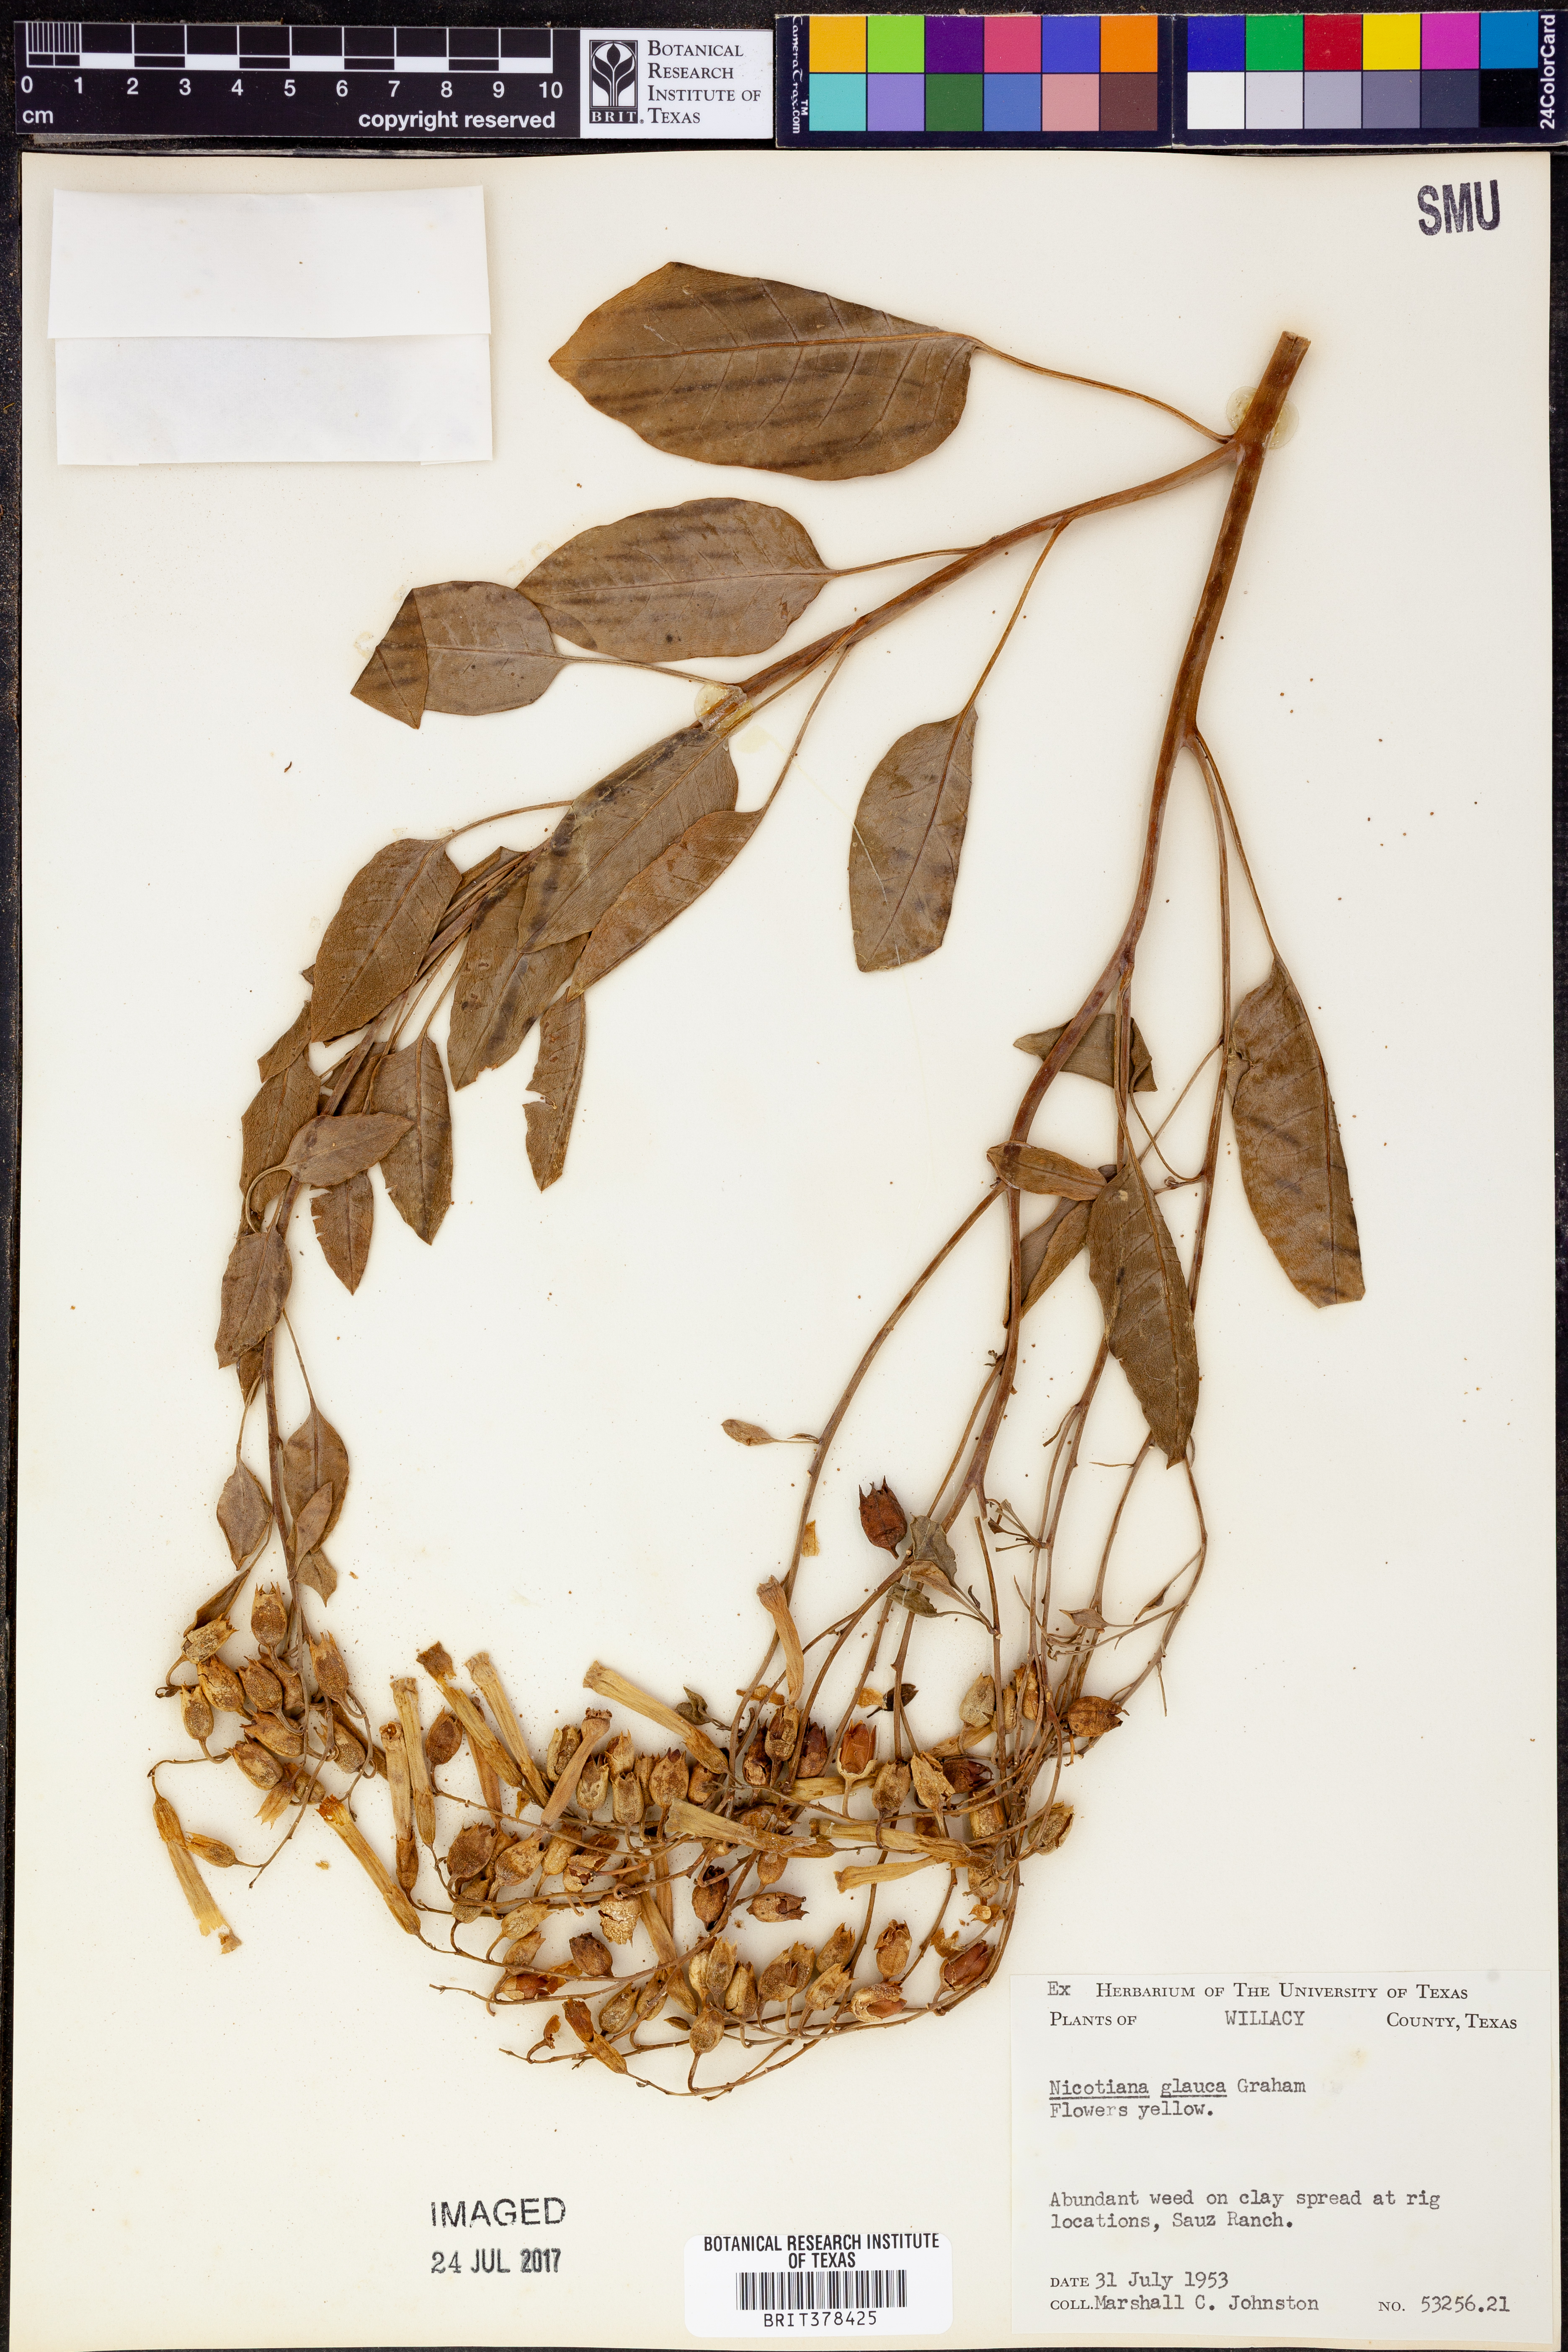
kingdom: Plantae
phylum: Tracheophyta
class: Magnoliopsida
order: Solanales
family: Solanaceae
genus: Nicotiana
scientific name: Nicotiana glauca
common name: Tree tobacco
